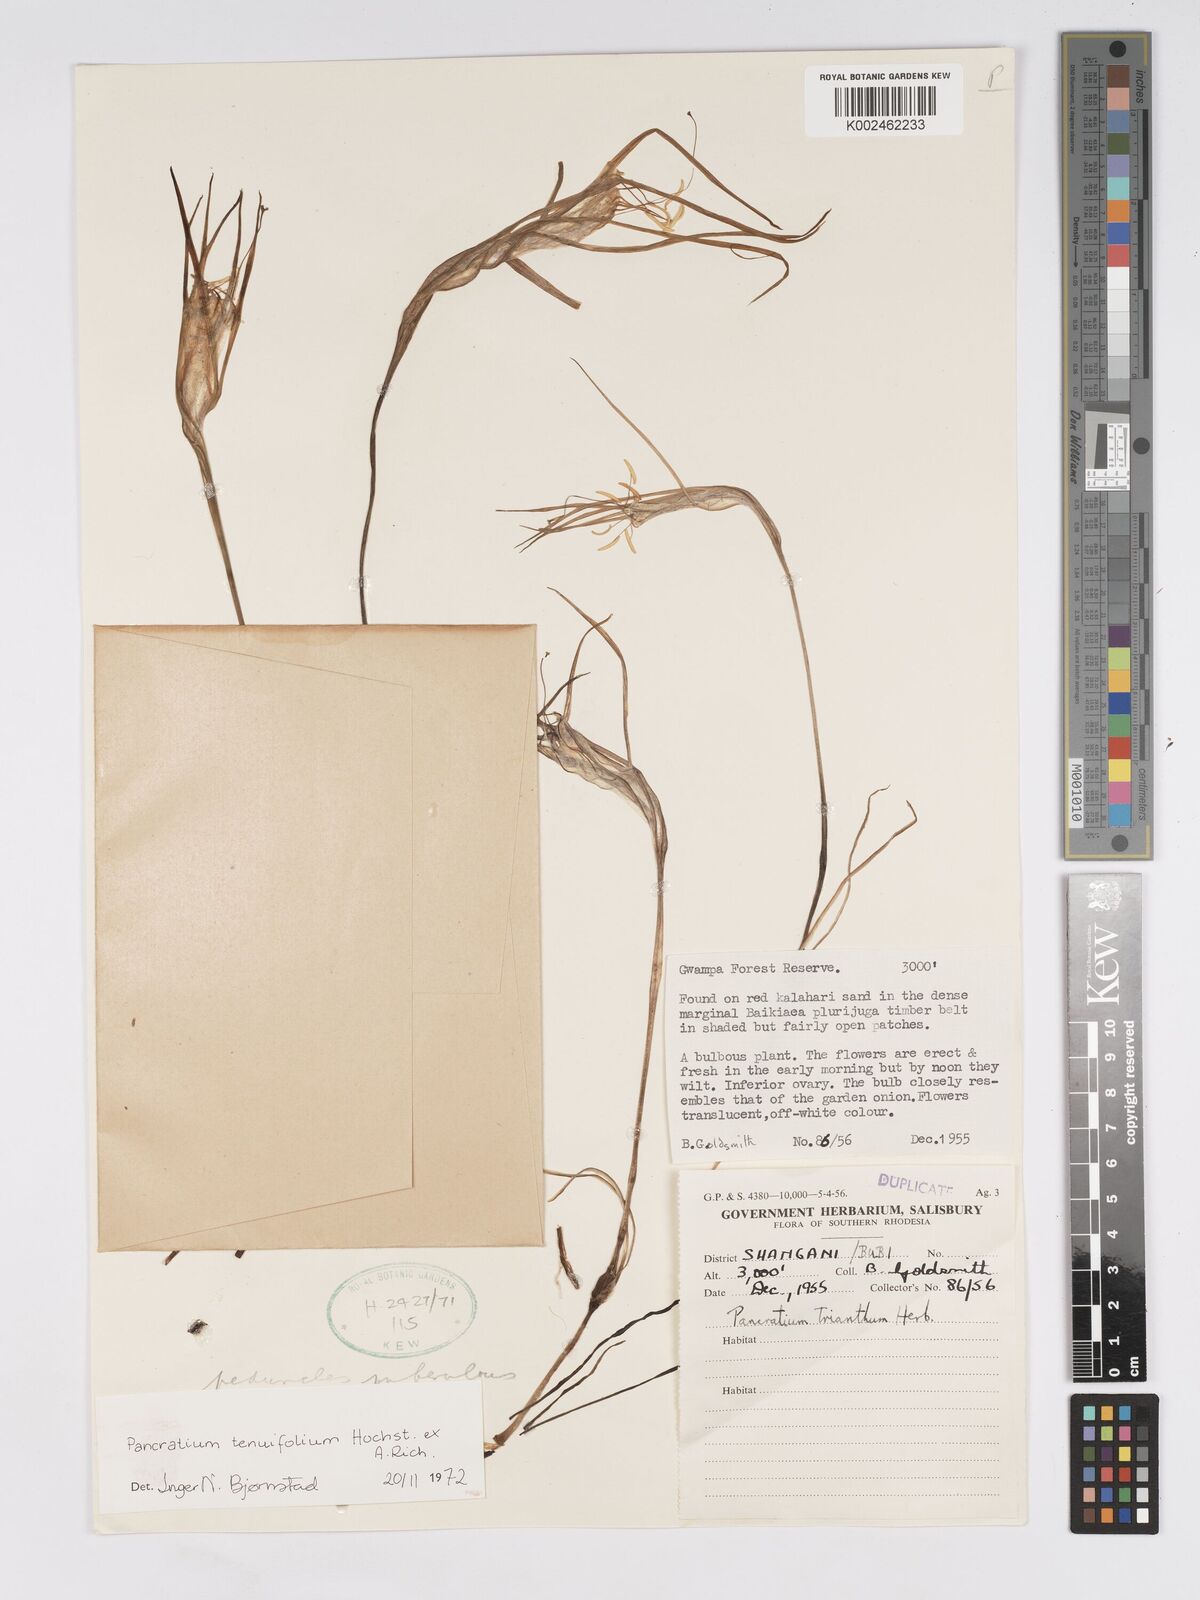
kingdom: Plantae
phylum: Tracheophyta
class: Liliopsida
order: Asparagales
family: Amaryllidaceae
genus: Pancratium
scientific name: Pancratium tenuifolium
